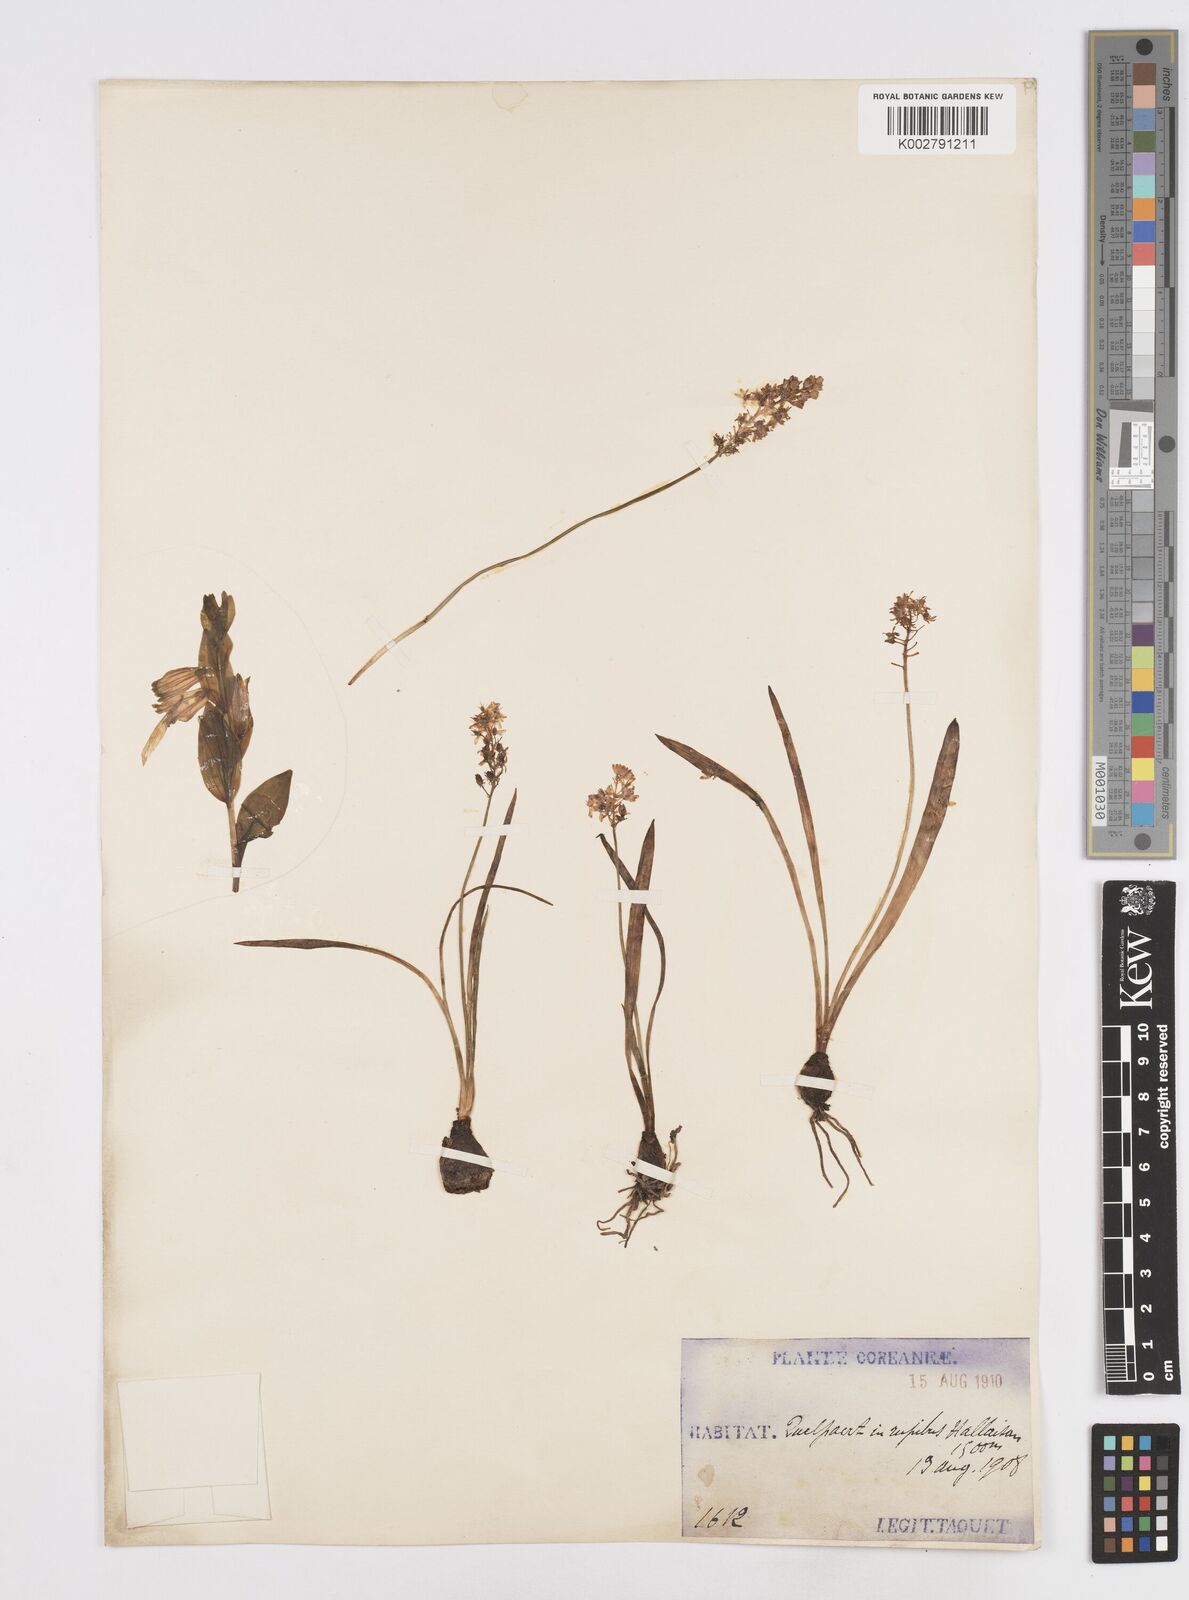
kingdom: Plantae
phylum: Tracheophyta
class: Liliopsida
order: Liliales
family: Melanthiaceae
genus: Helonias
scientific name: Helonias breviscapa
